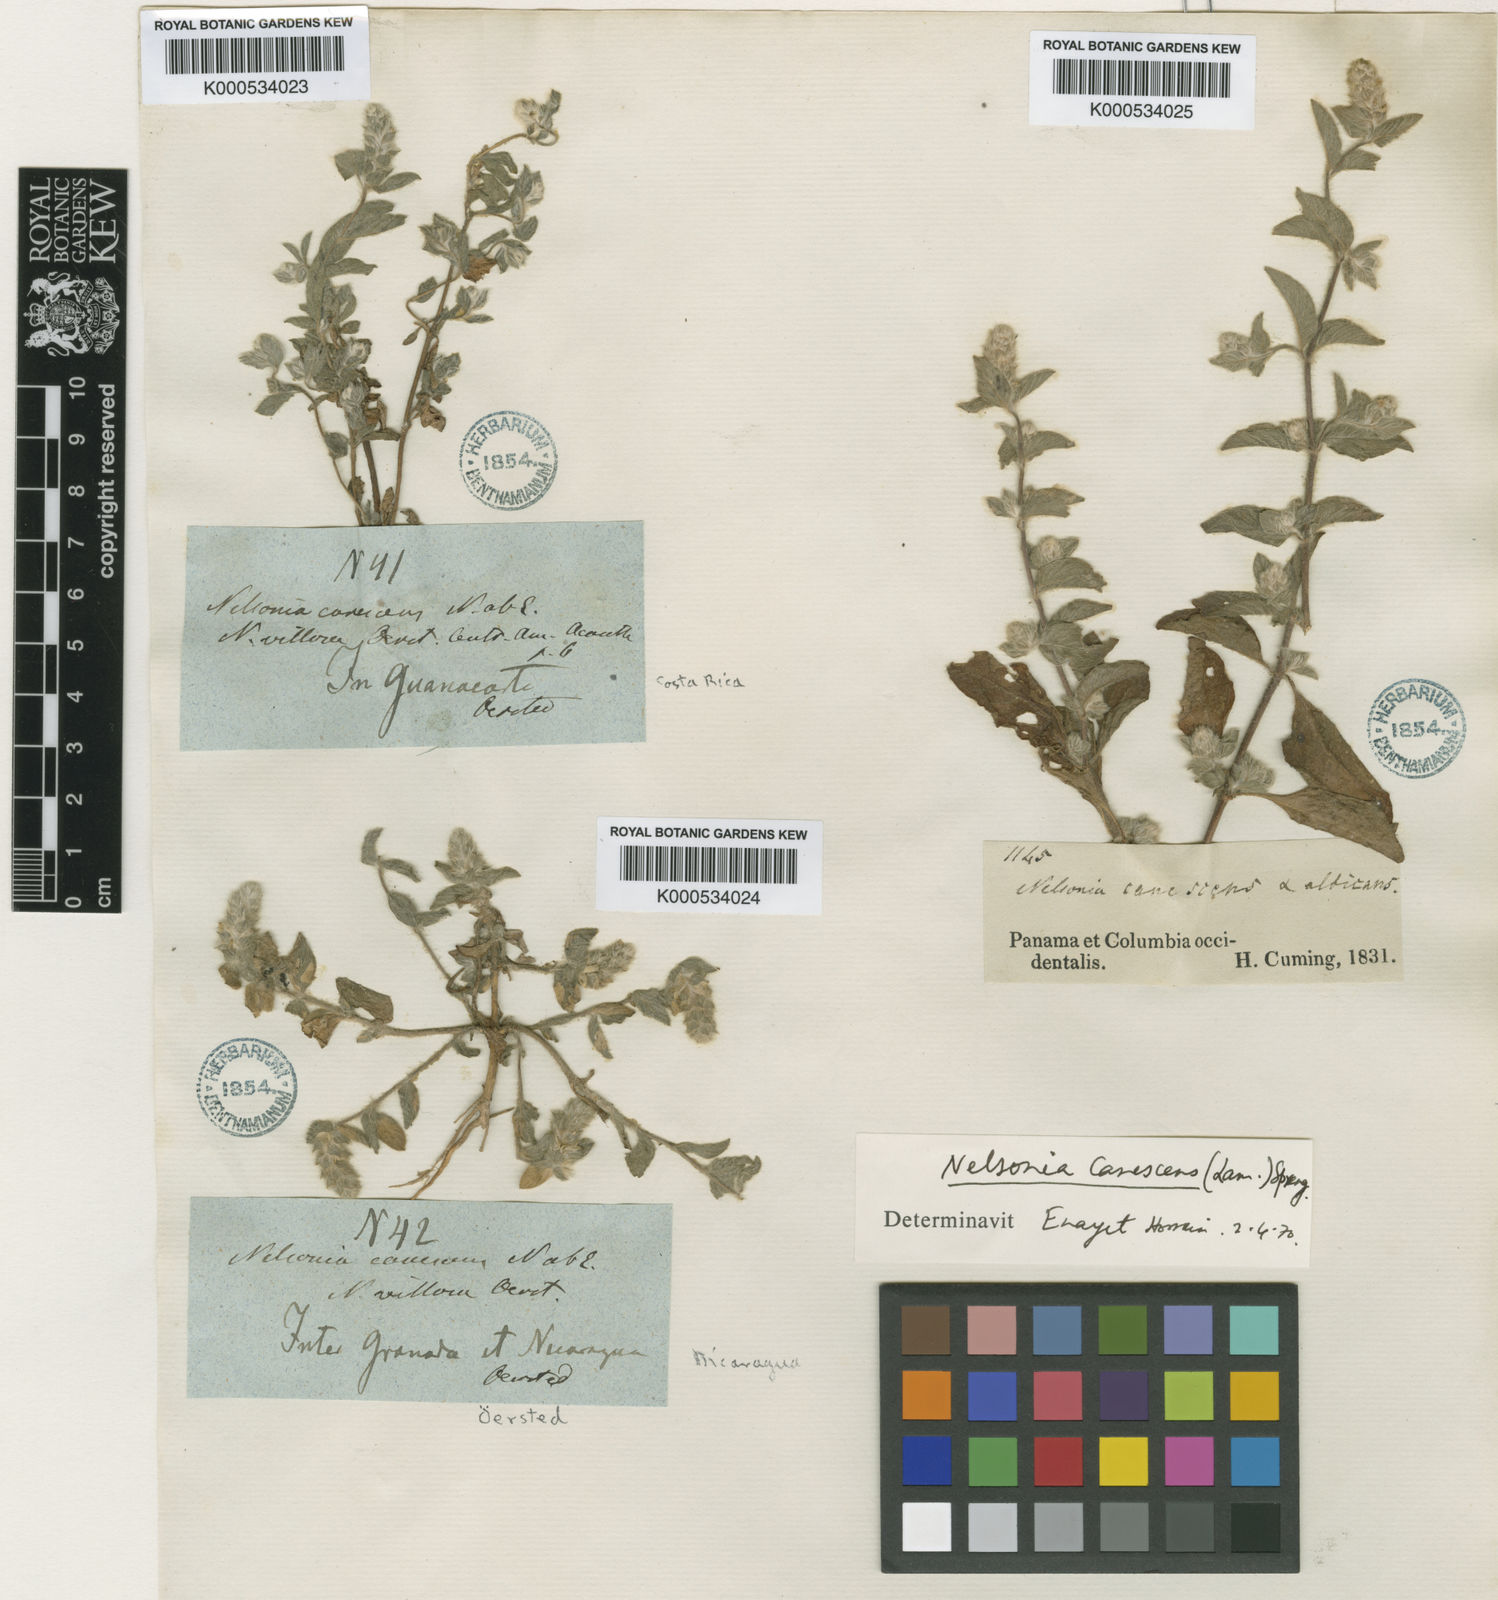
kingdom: Plantae
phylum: Tracheophyta
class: Magnoliopsida
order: Lamiales
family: Acanthaceae
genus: Nelsonia
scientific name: Nelsonia canescens
